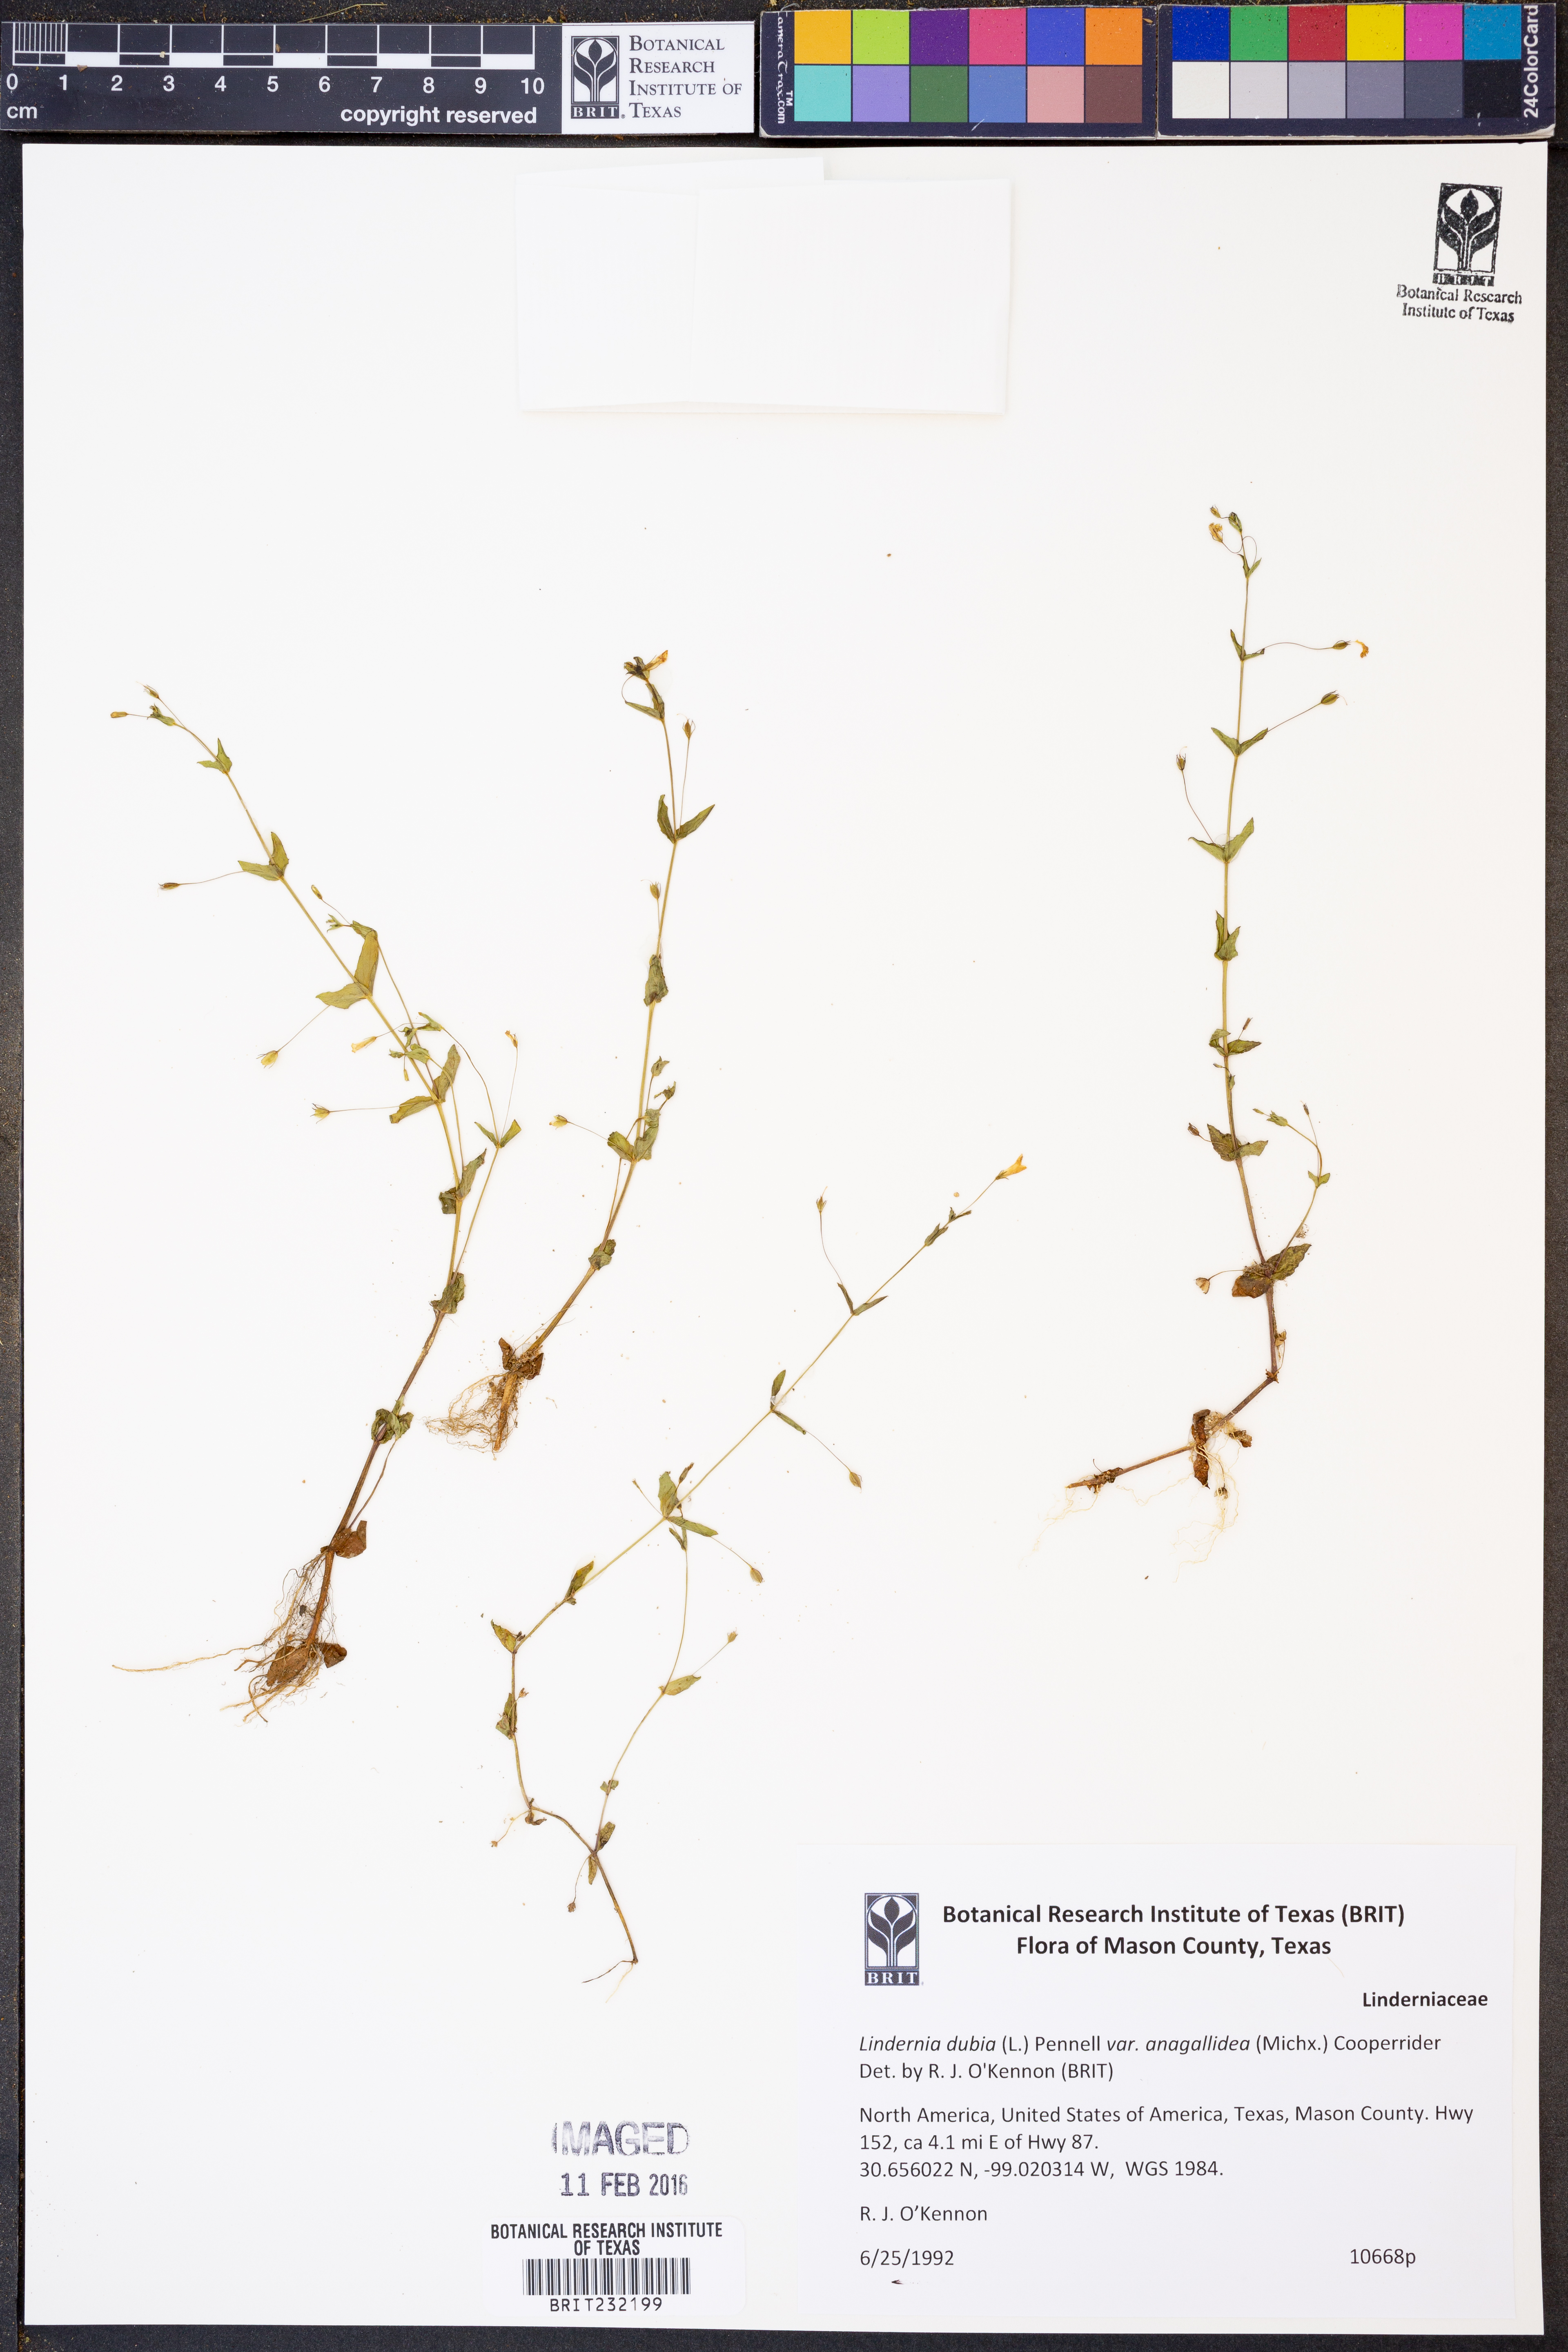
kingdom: Plantae
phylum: Tracheophyta
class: Magnoliopsida
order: Lamiales
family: Linderniaceae
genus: Lindernia
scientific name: Lindernia dubia
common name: Annual false pimpernel
